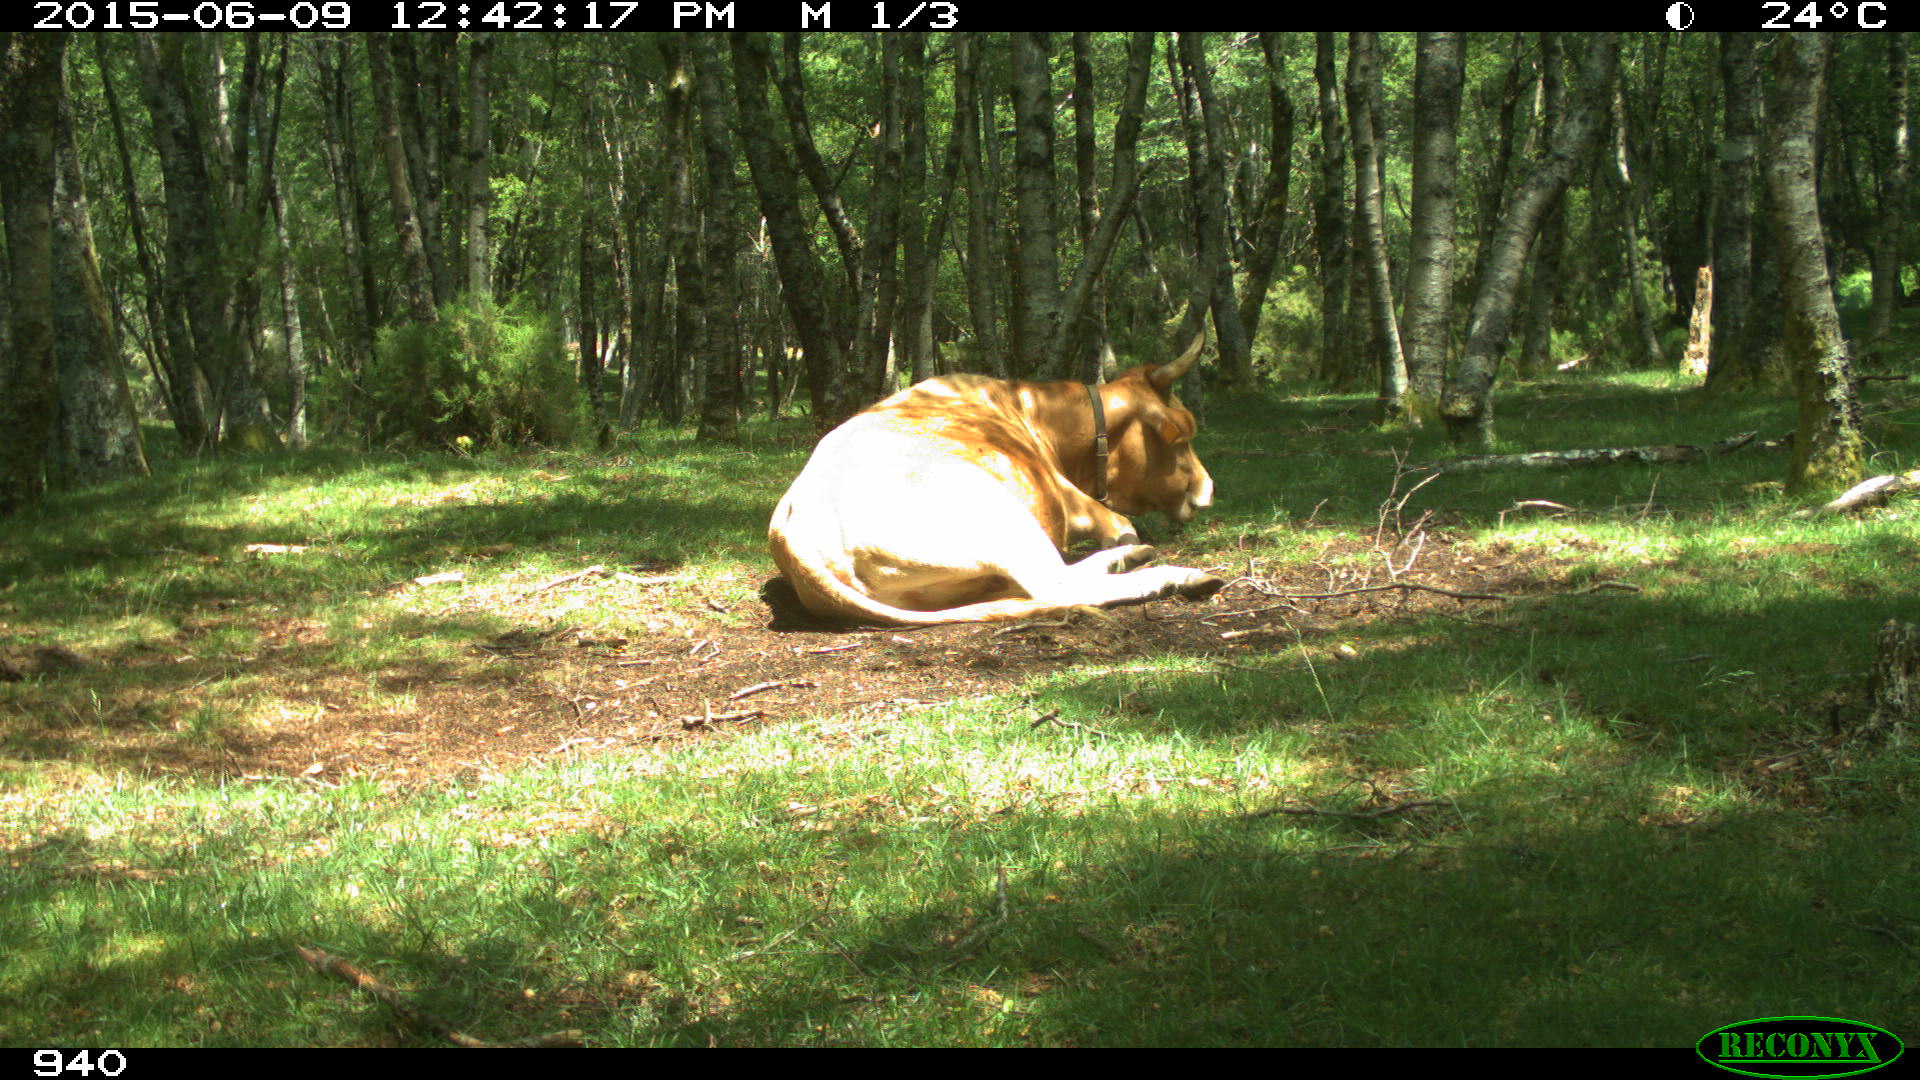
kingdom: Animalia
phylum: Chordata
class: Mammalia
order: Artiodactyla
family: Bovidae
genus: Bos
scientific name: Bos taurus
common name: Domesticated cattle
